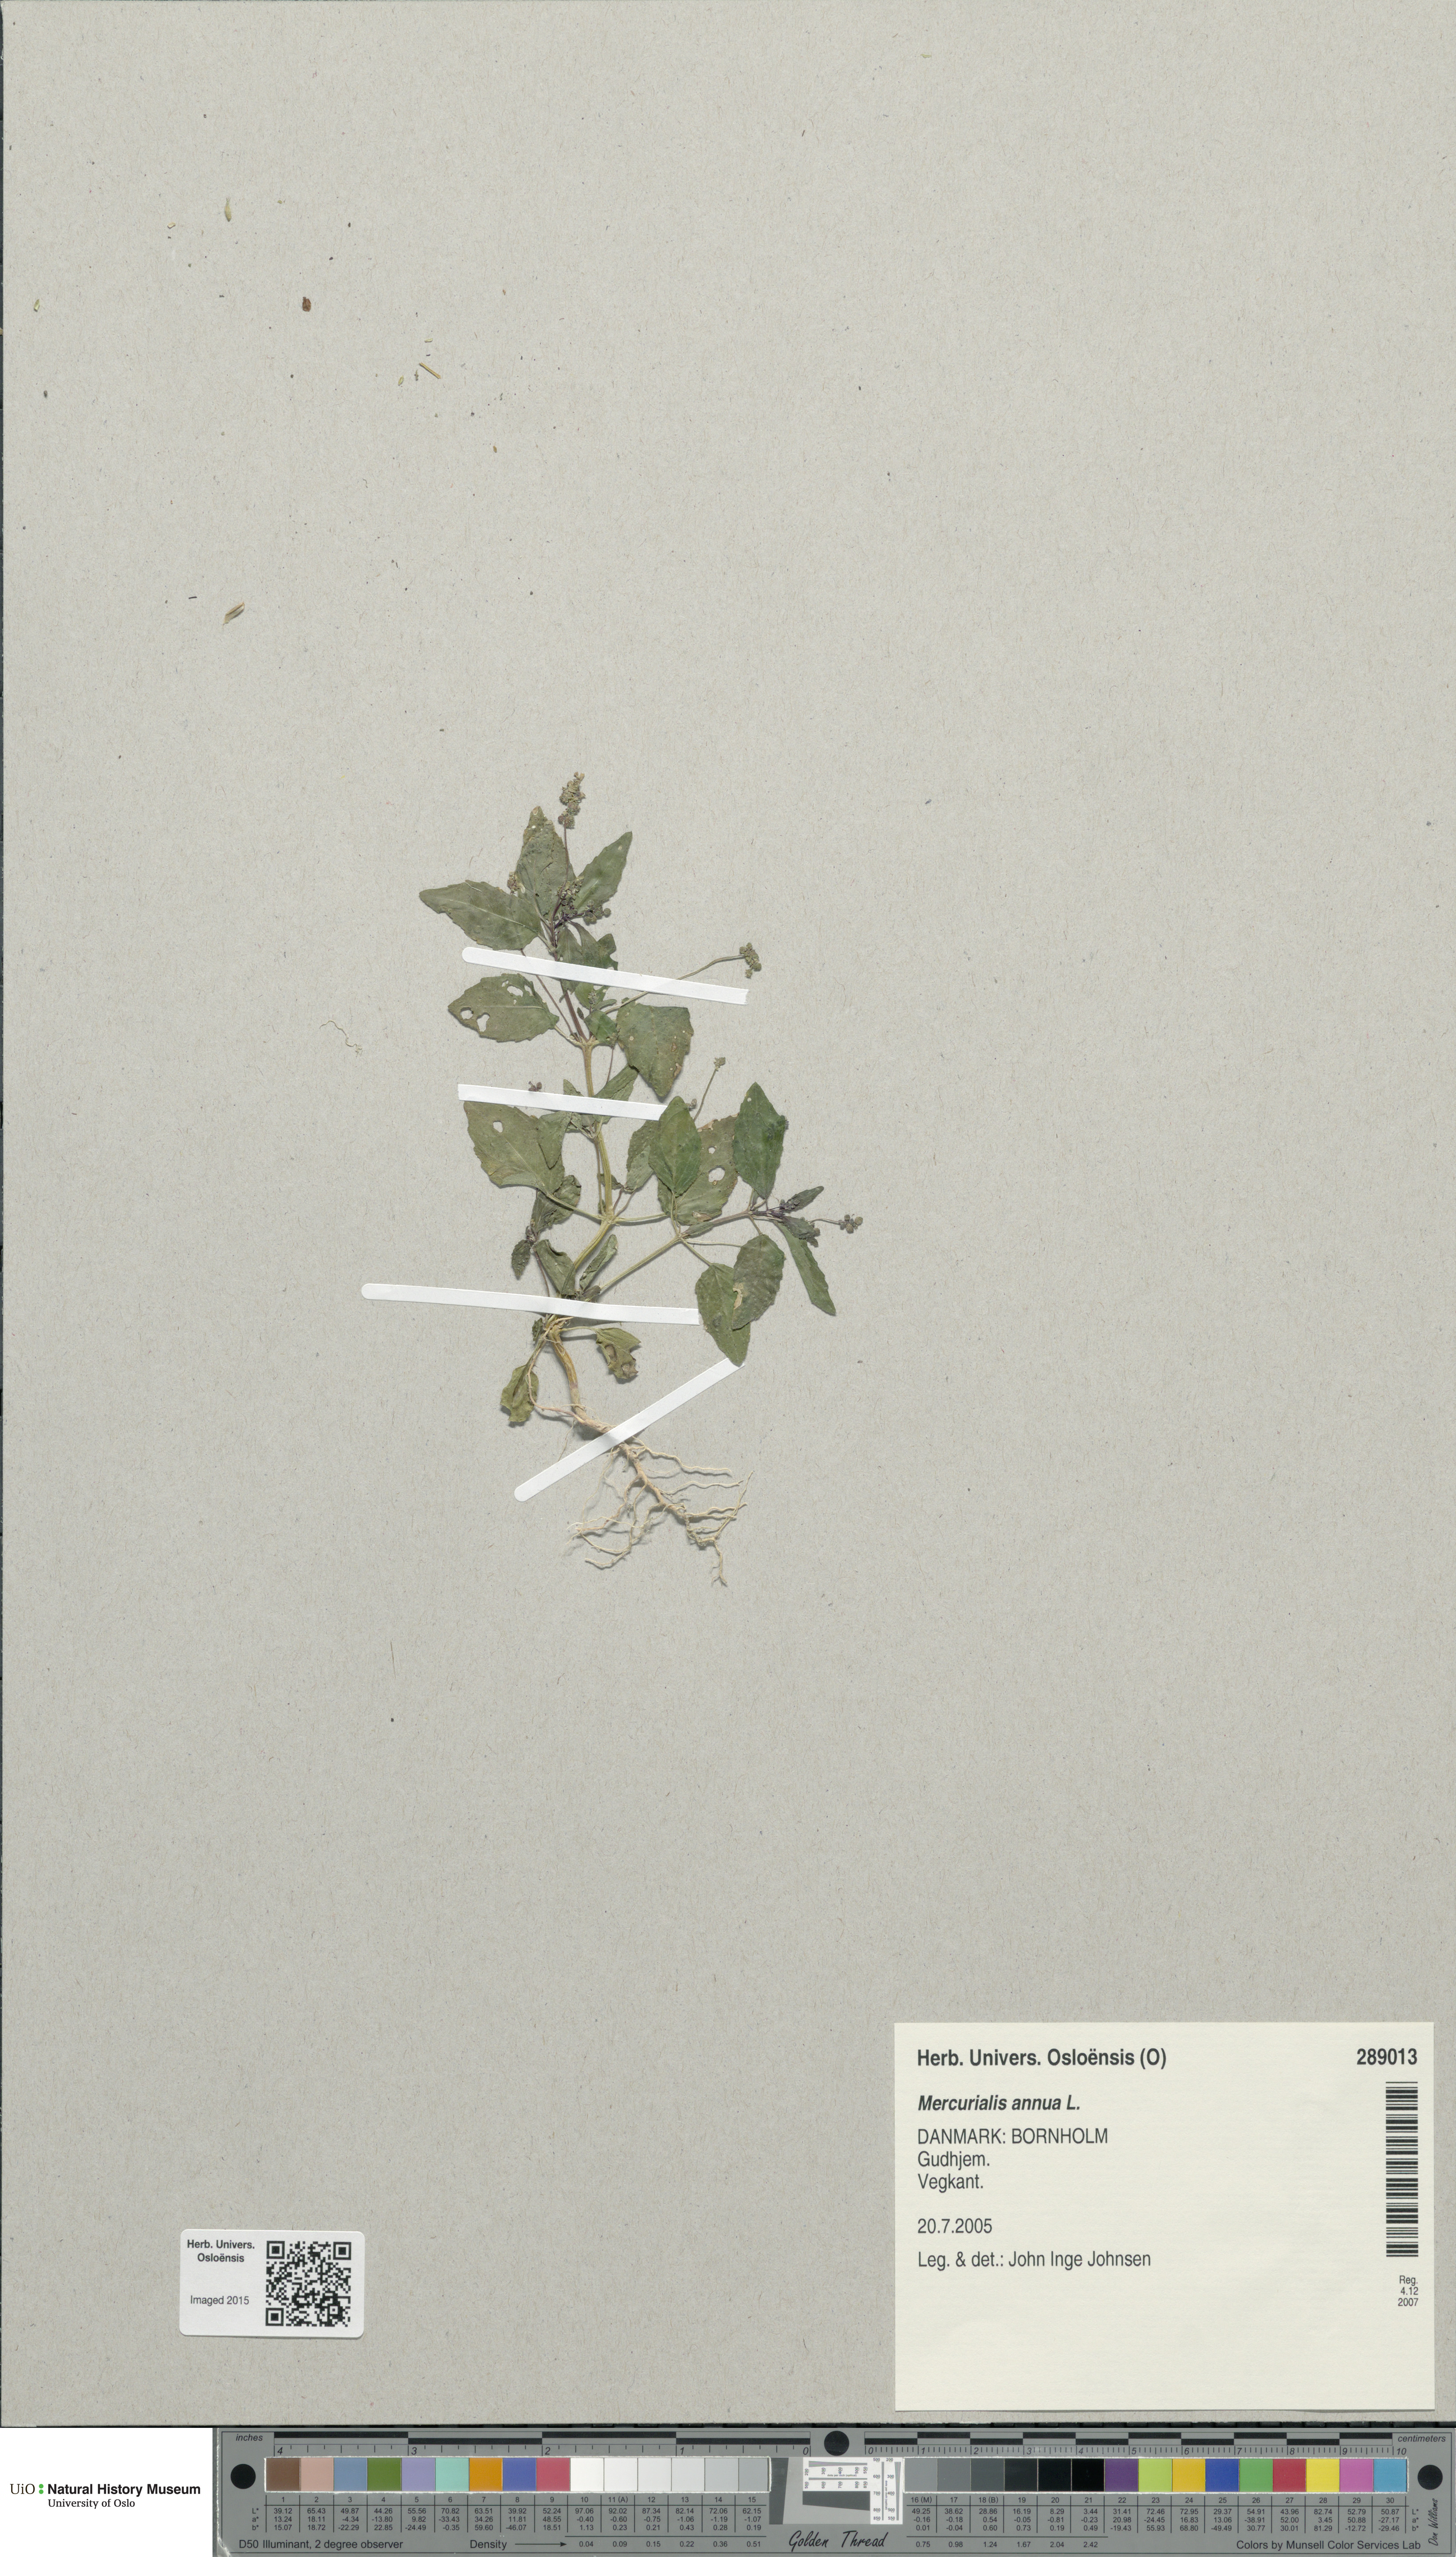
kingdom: Plantae
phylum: Tracheophyta
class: Magnoliopsida
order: Malpighiales
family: Euphorbiaceae
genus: Mercurialis
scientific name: Mercurialis annua
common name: Annual mercury
